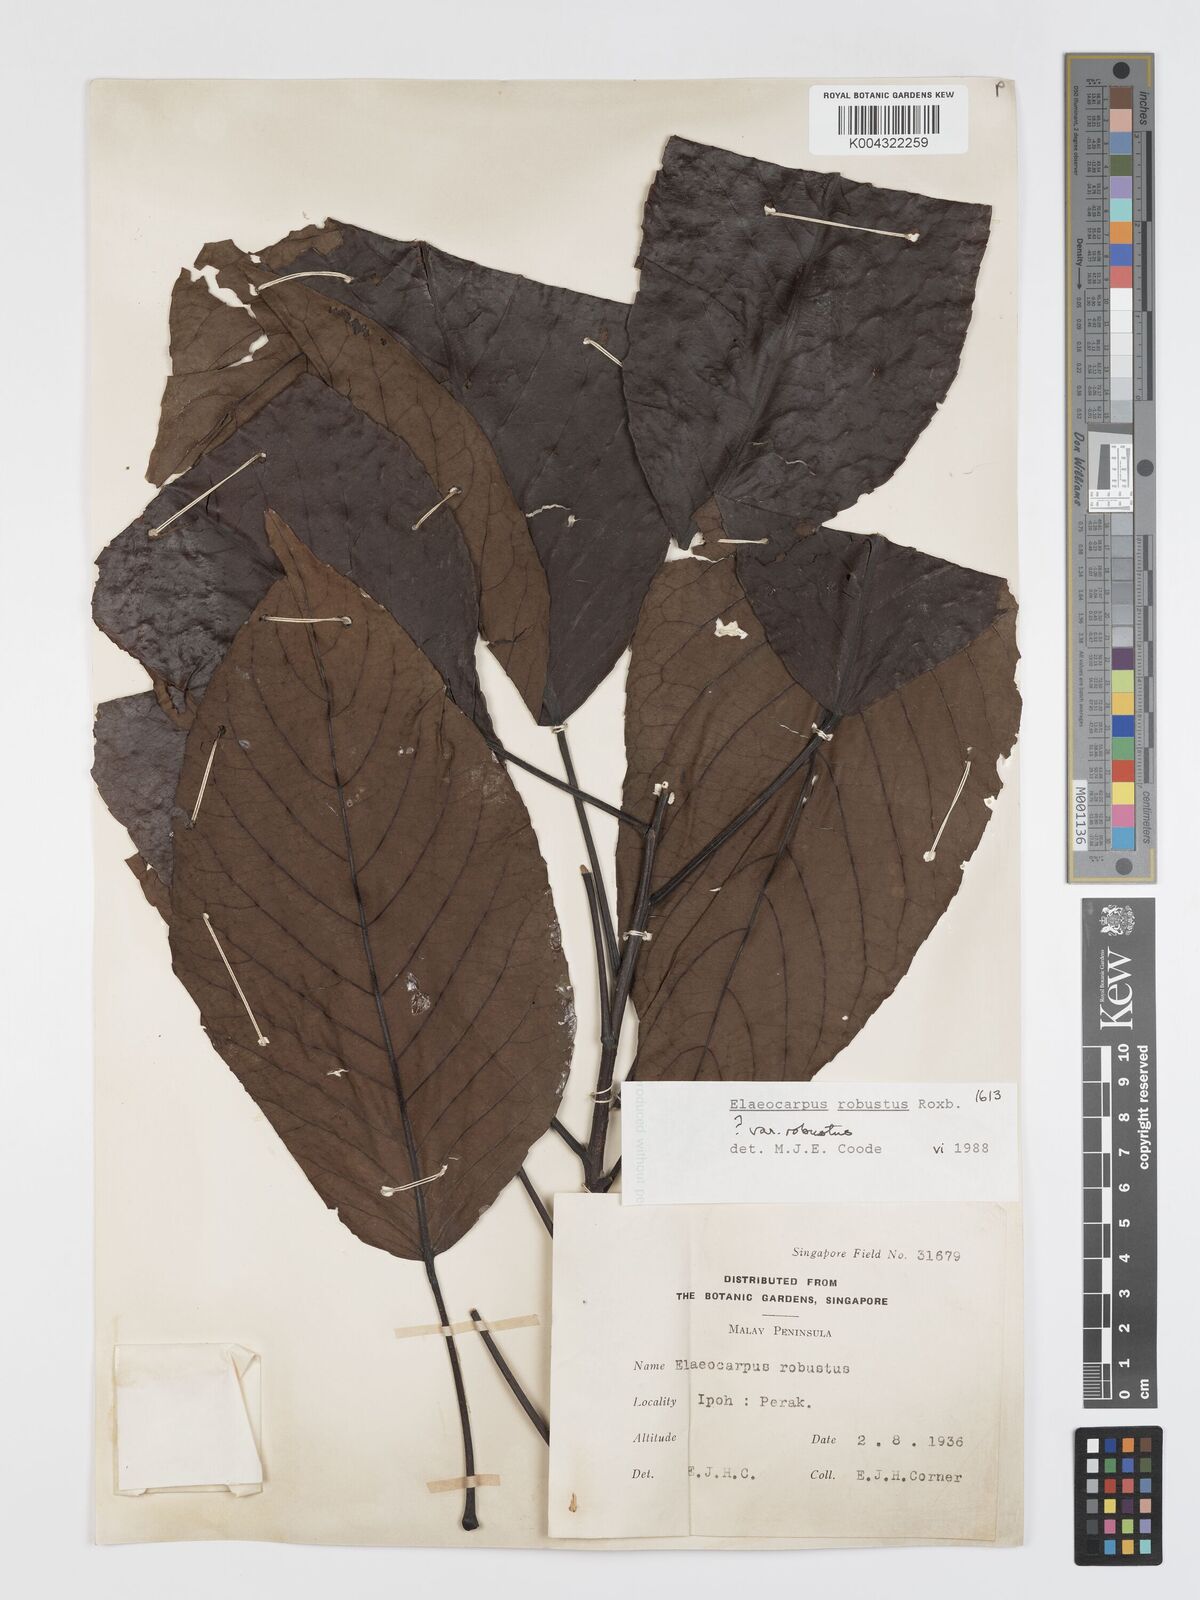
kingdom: Plantae
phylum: Tracheophyta
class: Magnoliopsida
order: Oxalidales
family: Elaeocarpaceae
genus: Elaeocarpus
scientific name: Elaeocarpus robustus
